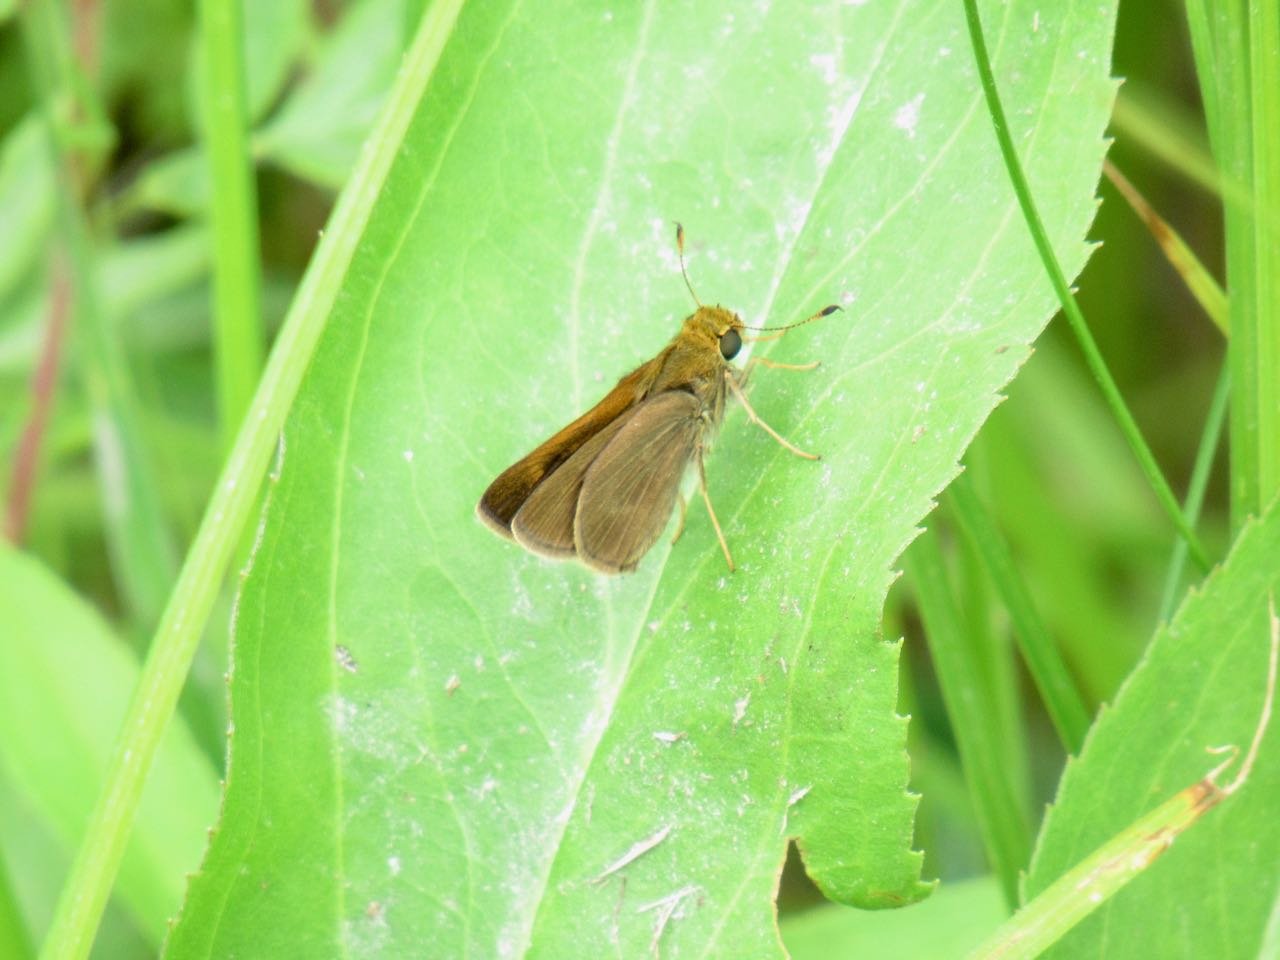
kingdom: Animalia
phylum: Arthropoda
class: Insecta
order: Lepidoptera
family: Hesperiidae
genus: Polites
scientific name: Polites egeremet
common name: Northern Broken-Dash
